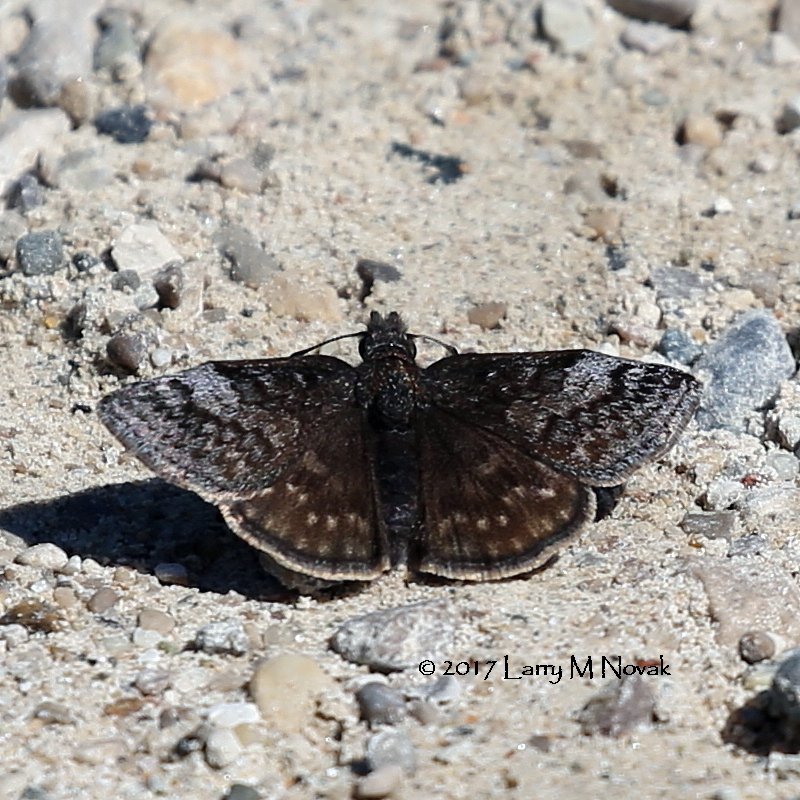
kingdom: Animalia
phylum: Arthropoda
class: Insecta
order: Lepidoptera
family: Hesperiidae
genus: Erynnis
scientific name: Erynnis icelus
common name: Dreamy Duskywing
